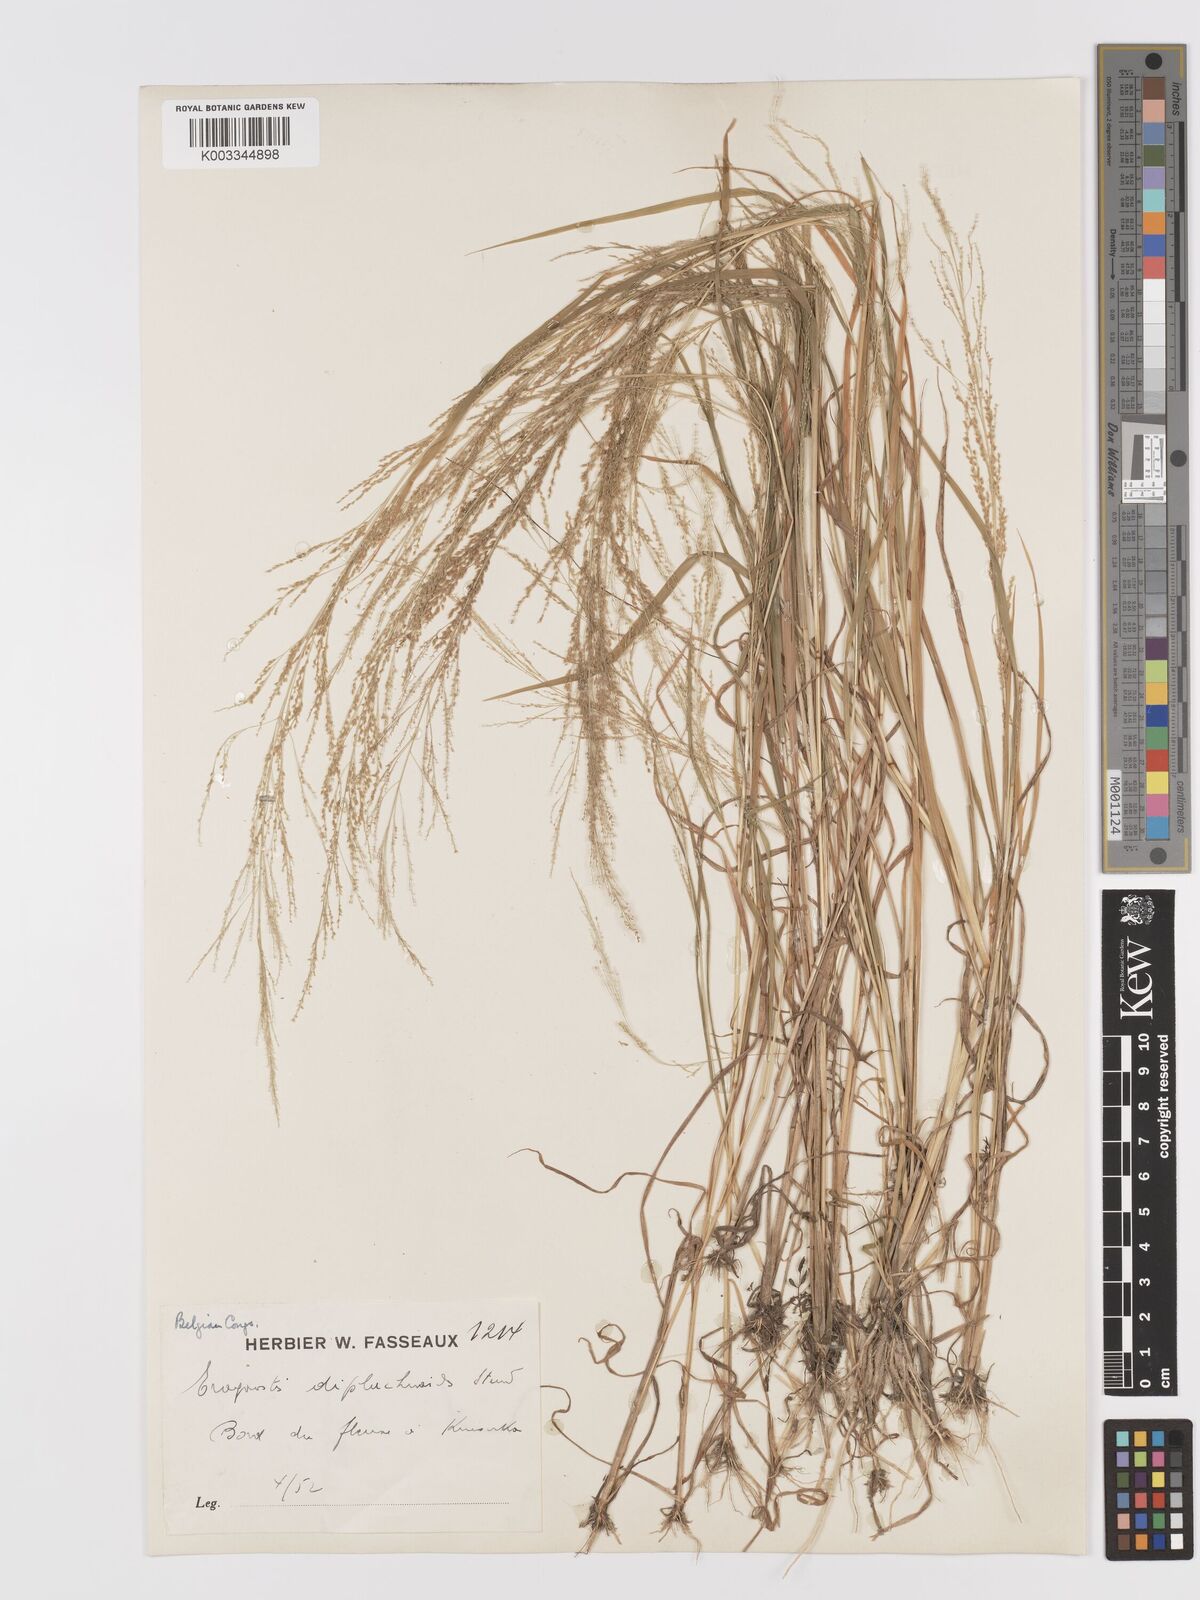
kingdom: Plantae
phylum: Tracheophyta
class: Liliopsida
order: Poales
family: Poaceae
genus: Eragrostis
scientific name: Eragrostis japonica
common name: Pond lovegrass
